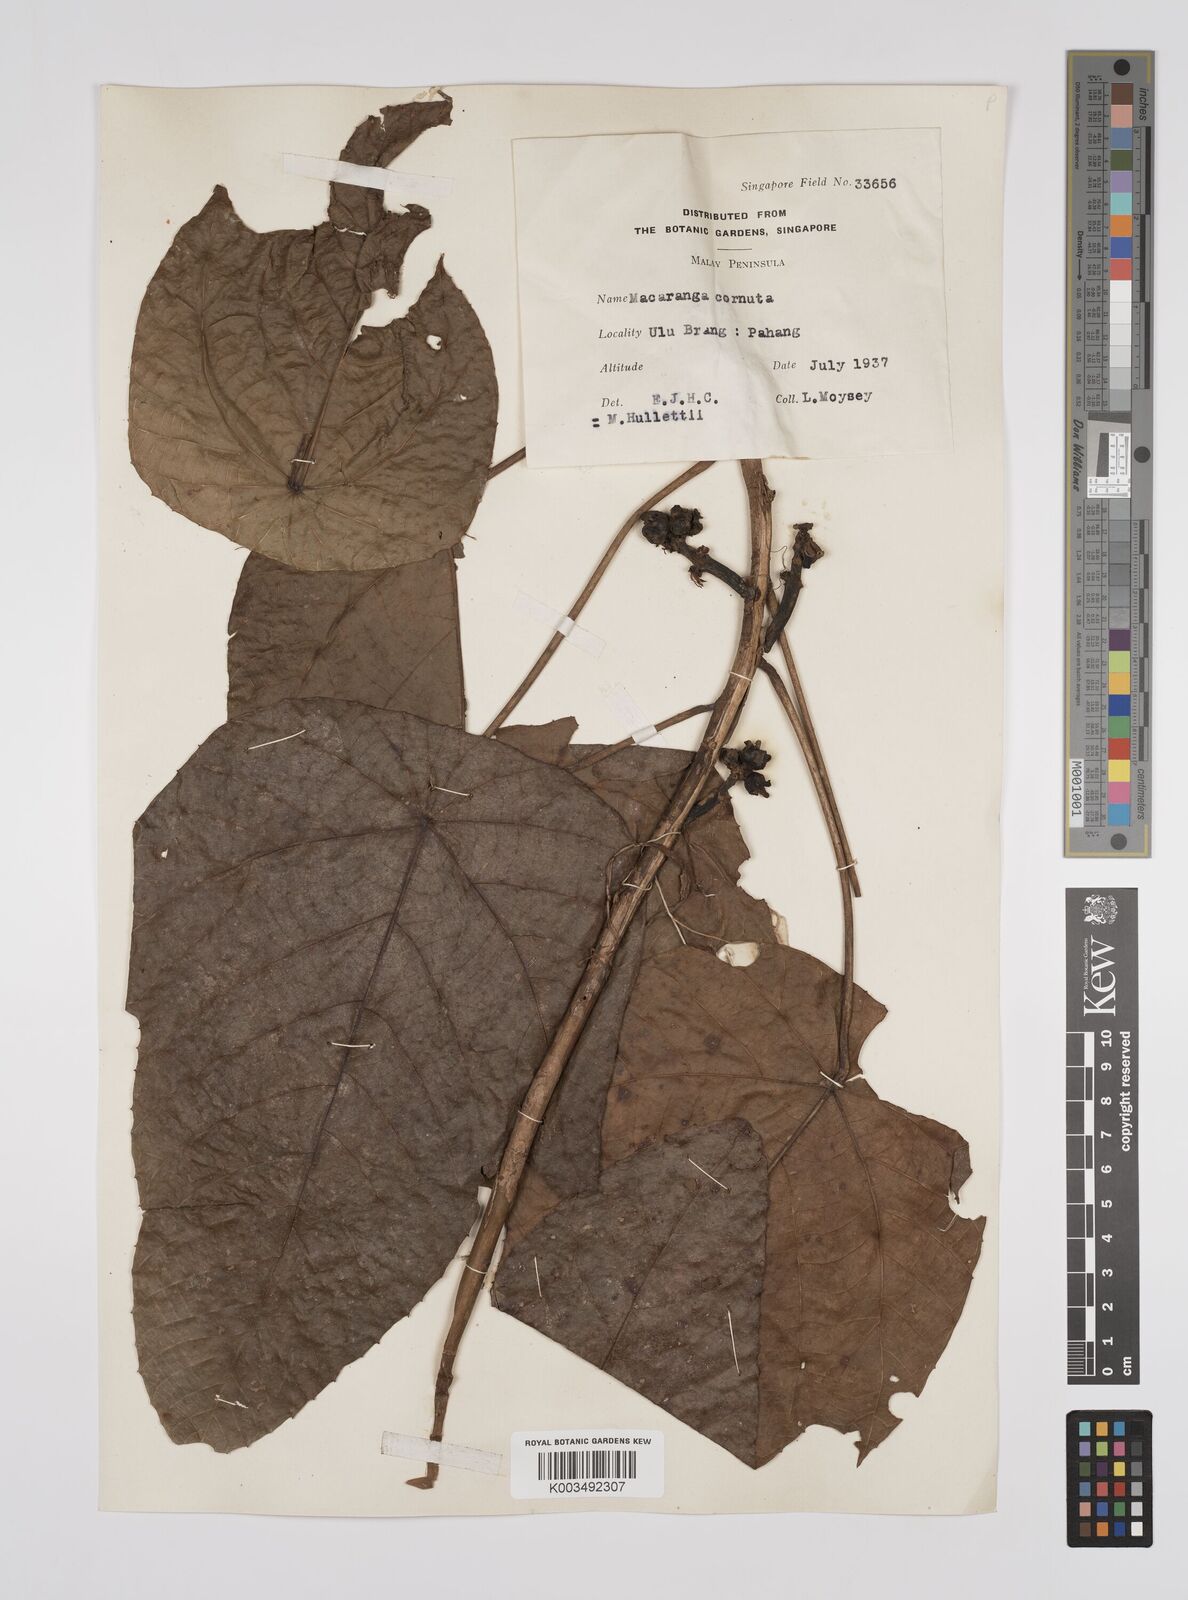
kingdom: Plantae
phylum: Tracheophyta
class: Magnoliopsida
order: Malpighiales
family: Euphorbiaceae
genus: Macaranga
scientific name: Macaranga hullettii
